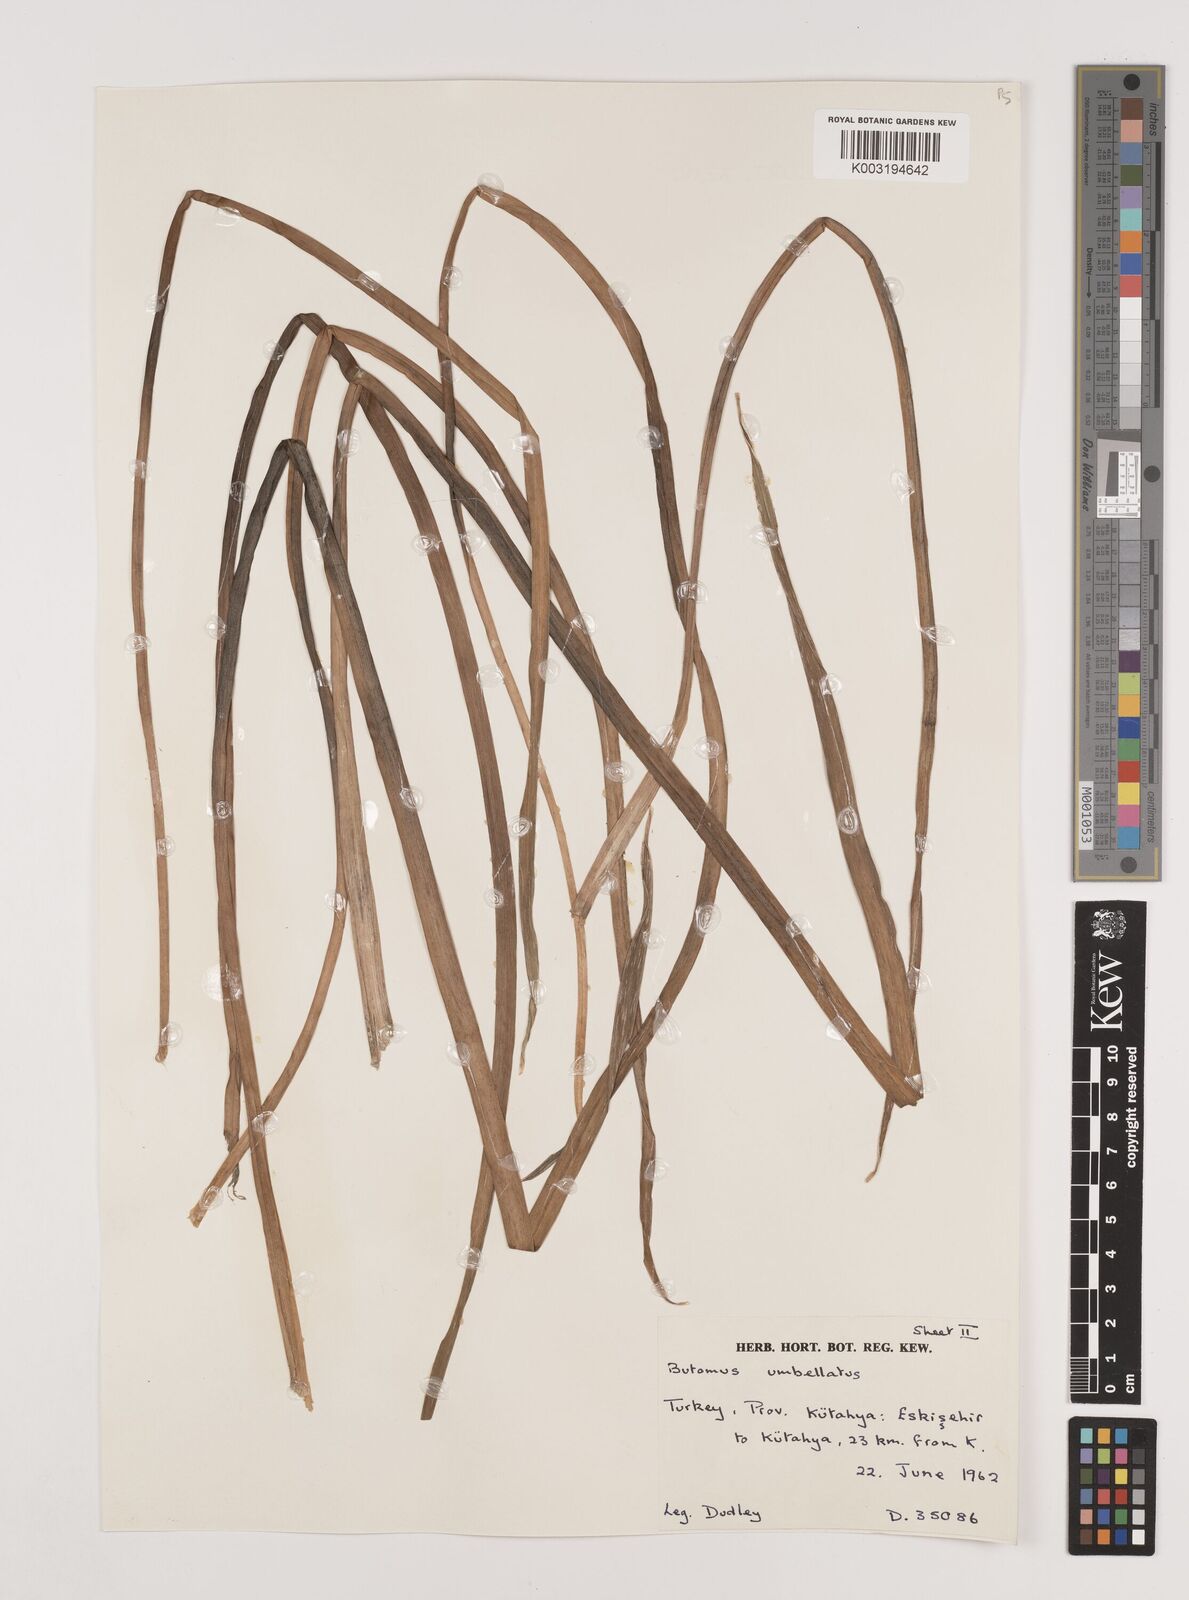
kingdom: Plantae
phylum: Tracheophyta
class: Liliopsida
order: Alismatales
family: Butomaceae
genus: Butomus
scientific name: Butomus umbellatus
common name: Flowering-rush
